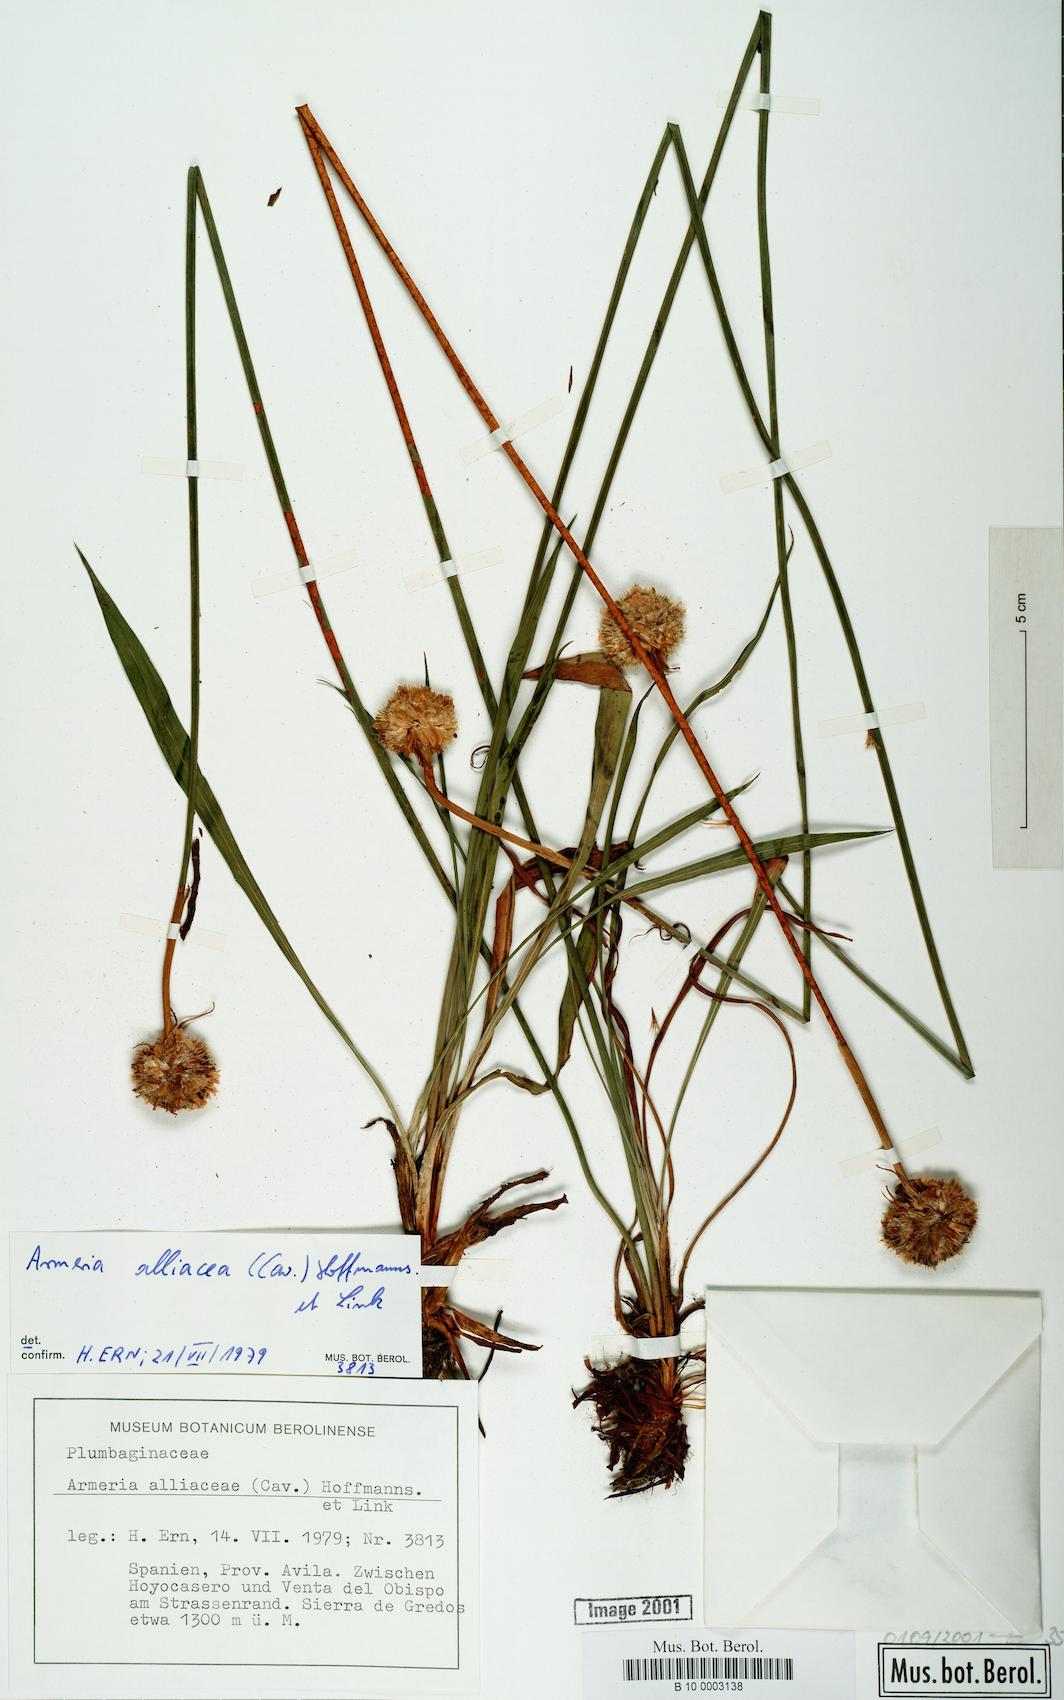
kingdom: Plantae
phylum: Tracheophyta
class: Magnoliopsida
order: Caryophyllales
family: Plumbaginaceae
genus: Armeria
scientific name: Armeria alliacea
